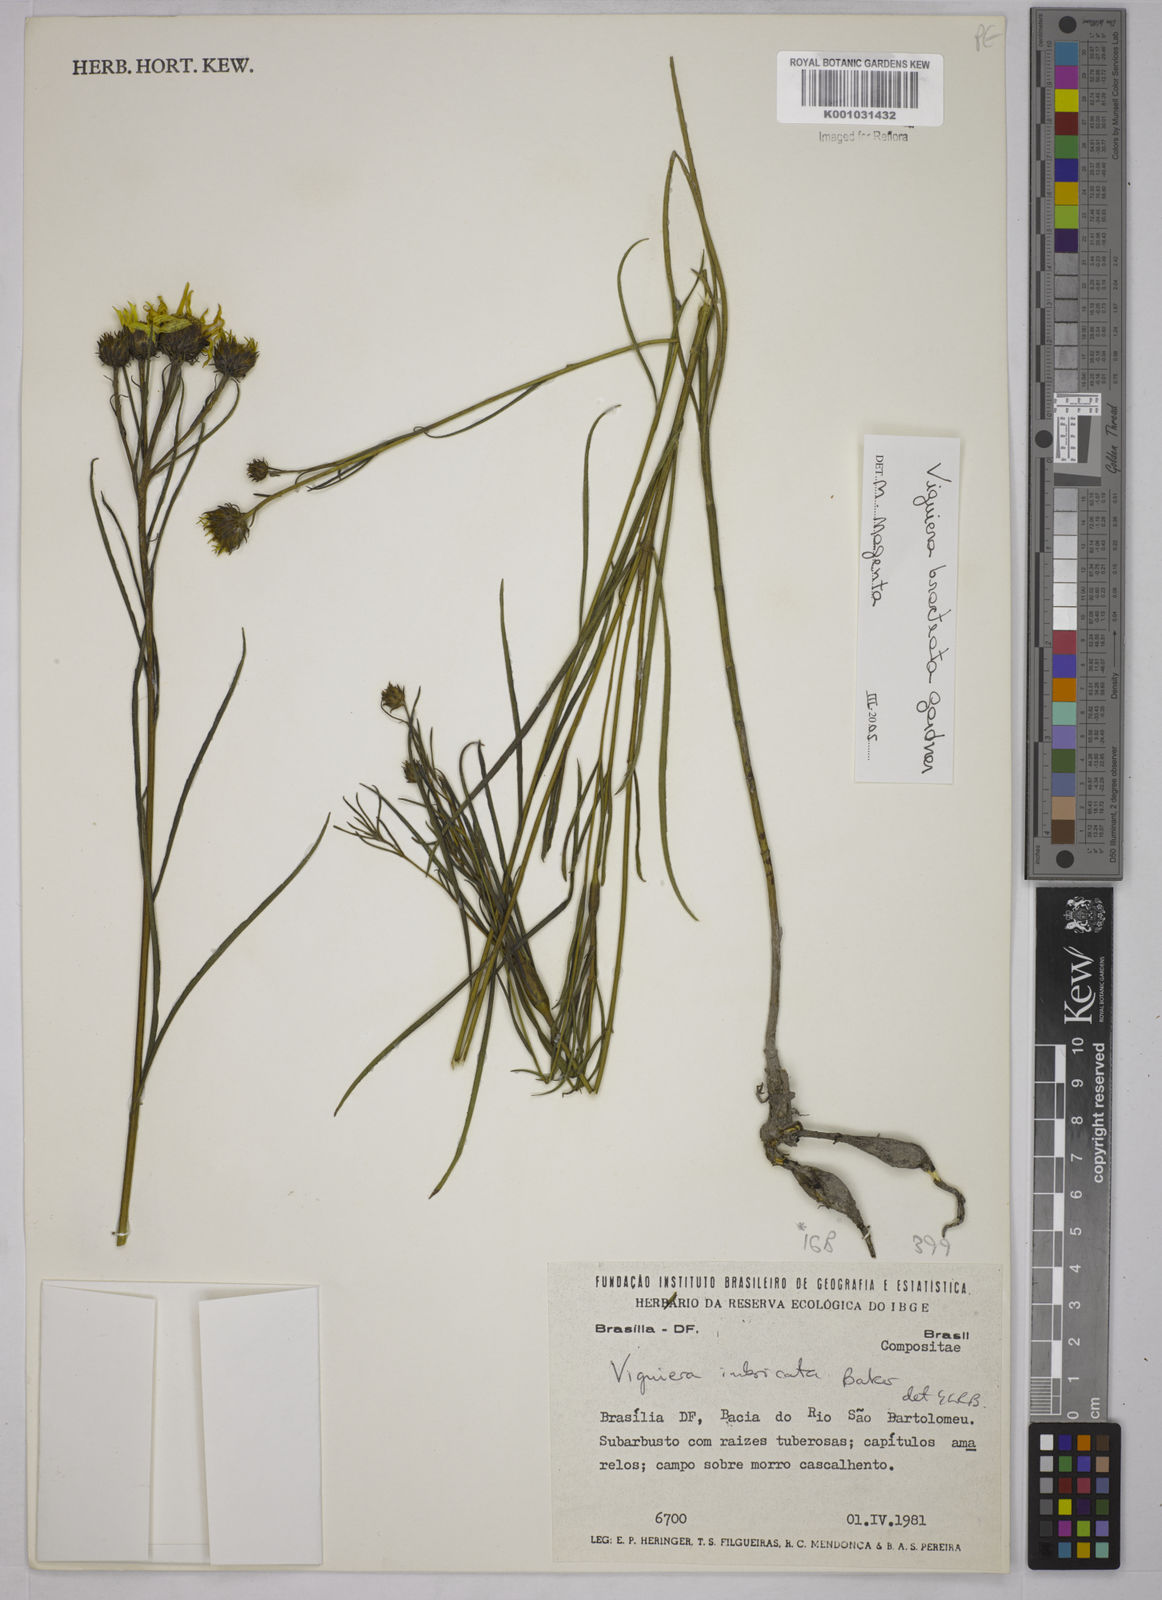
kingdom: Plantae
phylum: Tracheophyta
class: Magnoliopsida
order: Asterales
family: Asteraceae
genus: Aldama
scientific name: Aldama bracteata
